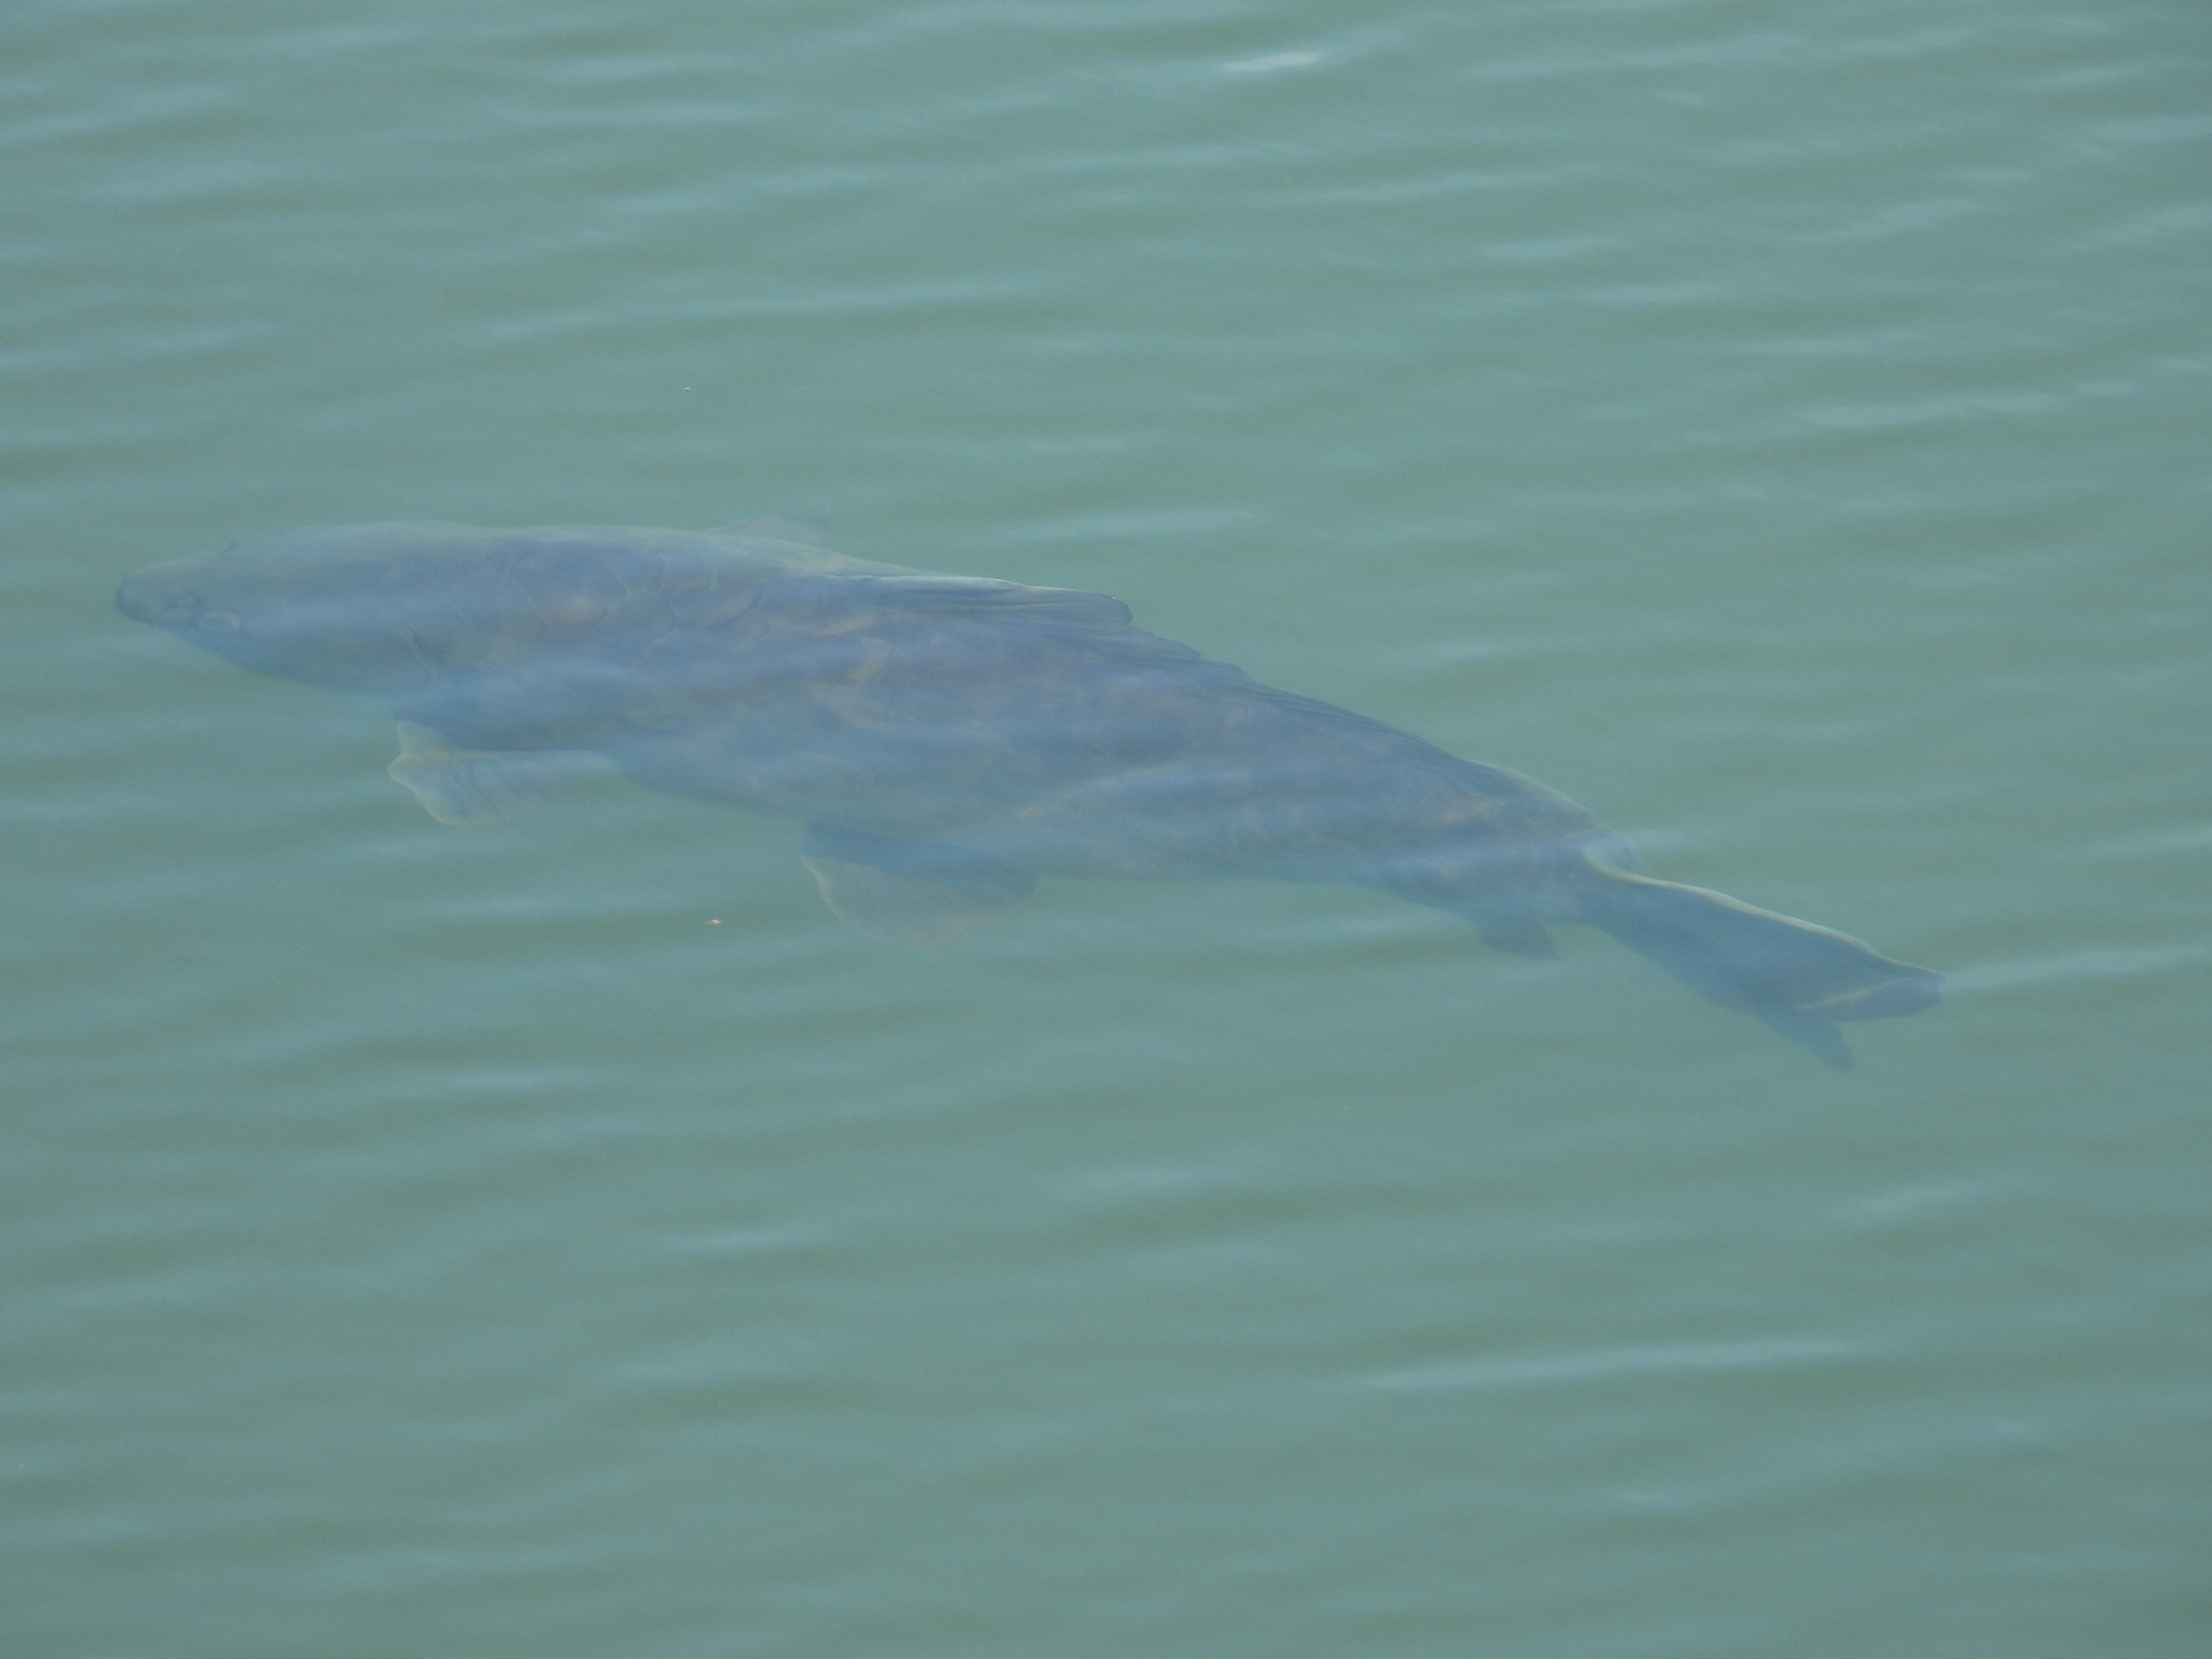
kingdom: Animalia
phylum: Chordata
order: Cypriniformes
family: Cyprinidae
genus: Cyprinus
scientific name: Cyprinus carpio
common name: Karpe
